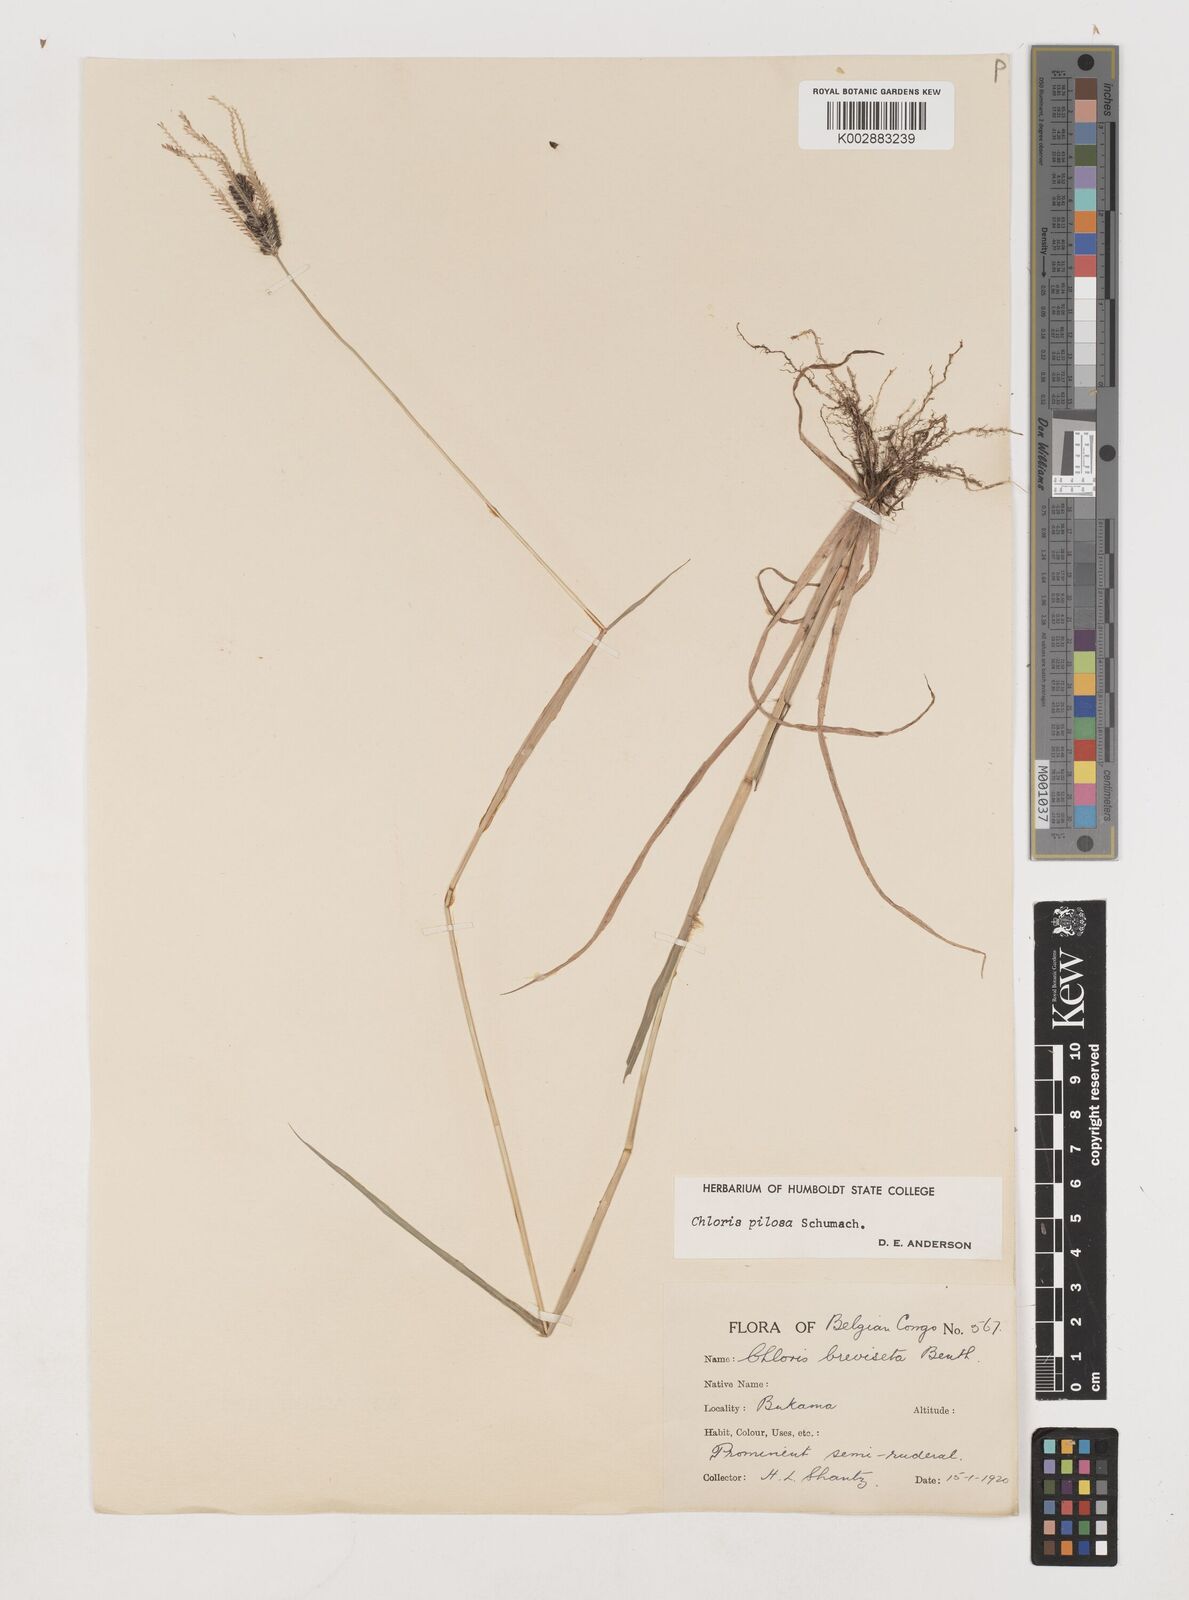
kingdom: Plantae
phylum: Tracheophyta
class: Liliopsida
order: Poales
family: Poaceae
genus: Chloris
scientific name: Chloris pilosa
